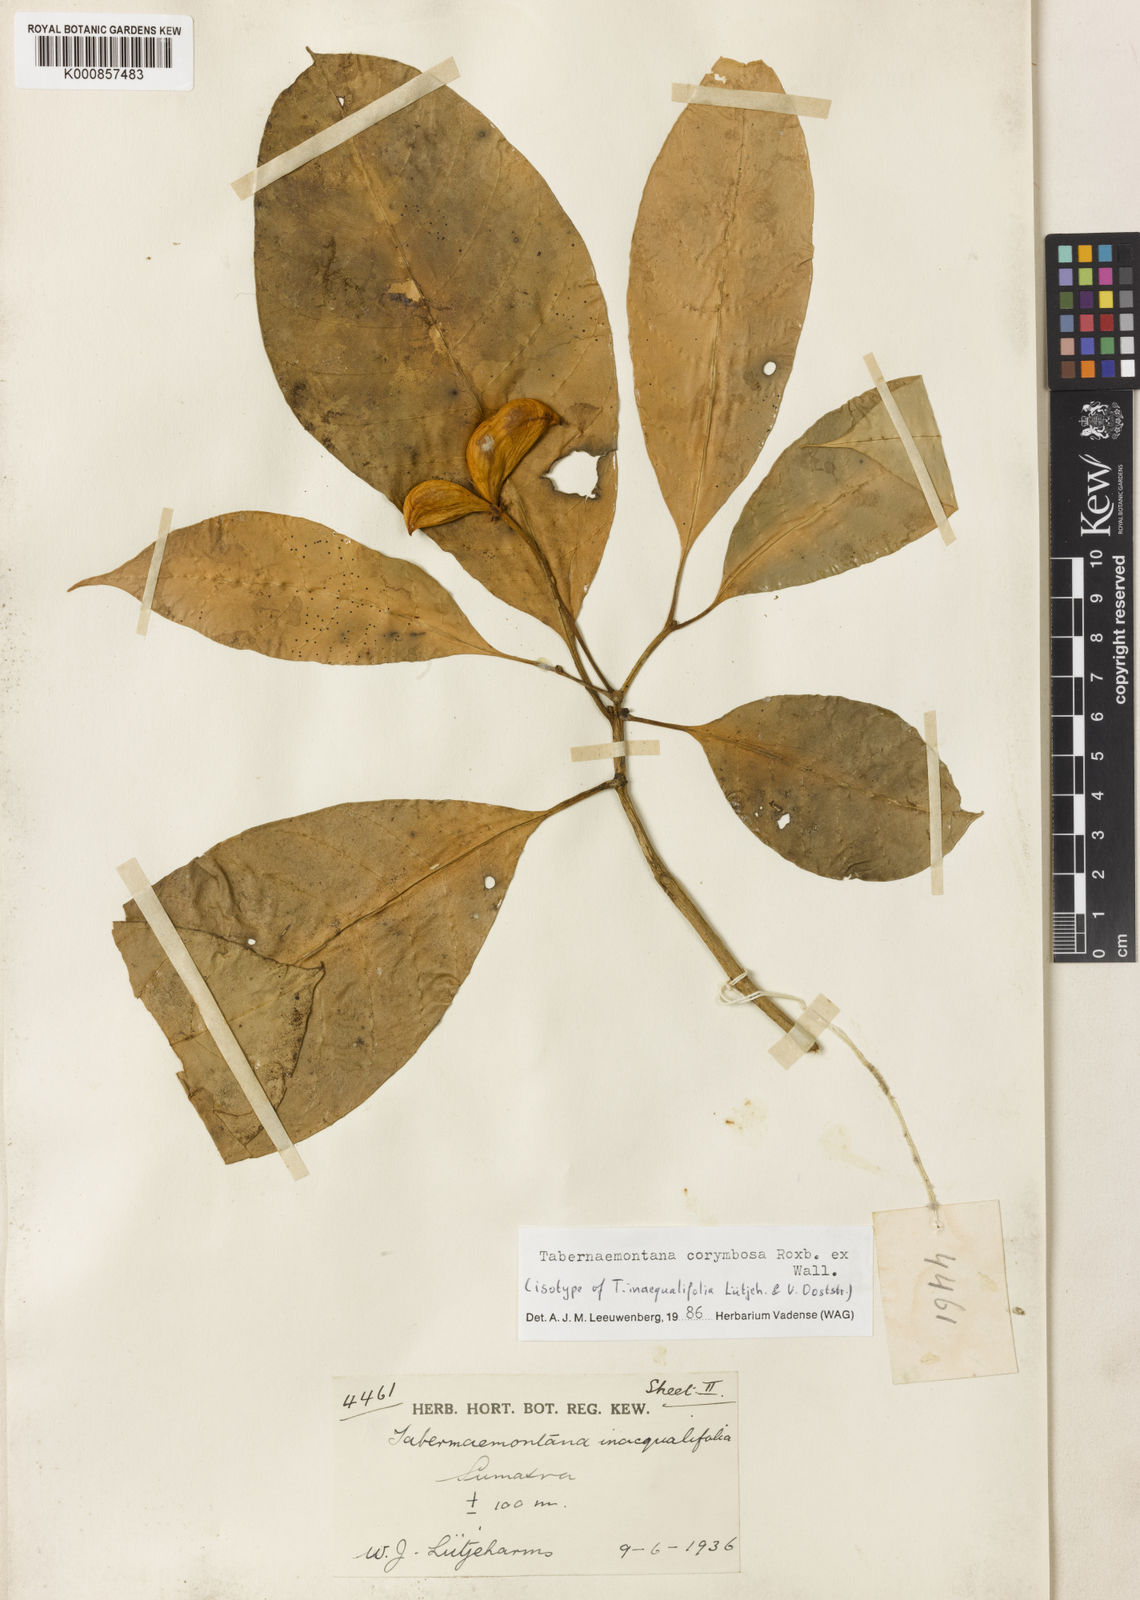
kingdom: Plantae
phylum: Tracheophyta
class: Magnoliopsida
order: Gentianales
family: Apocynaceae
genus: Tabernaemontana
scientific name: Tabernaemontana corymbosa
